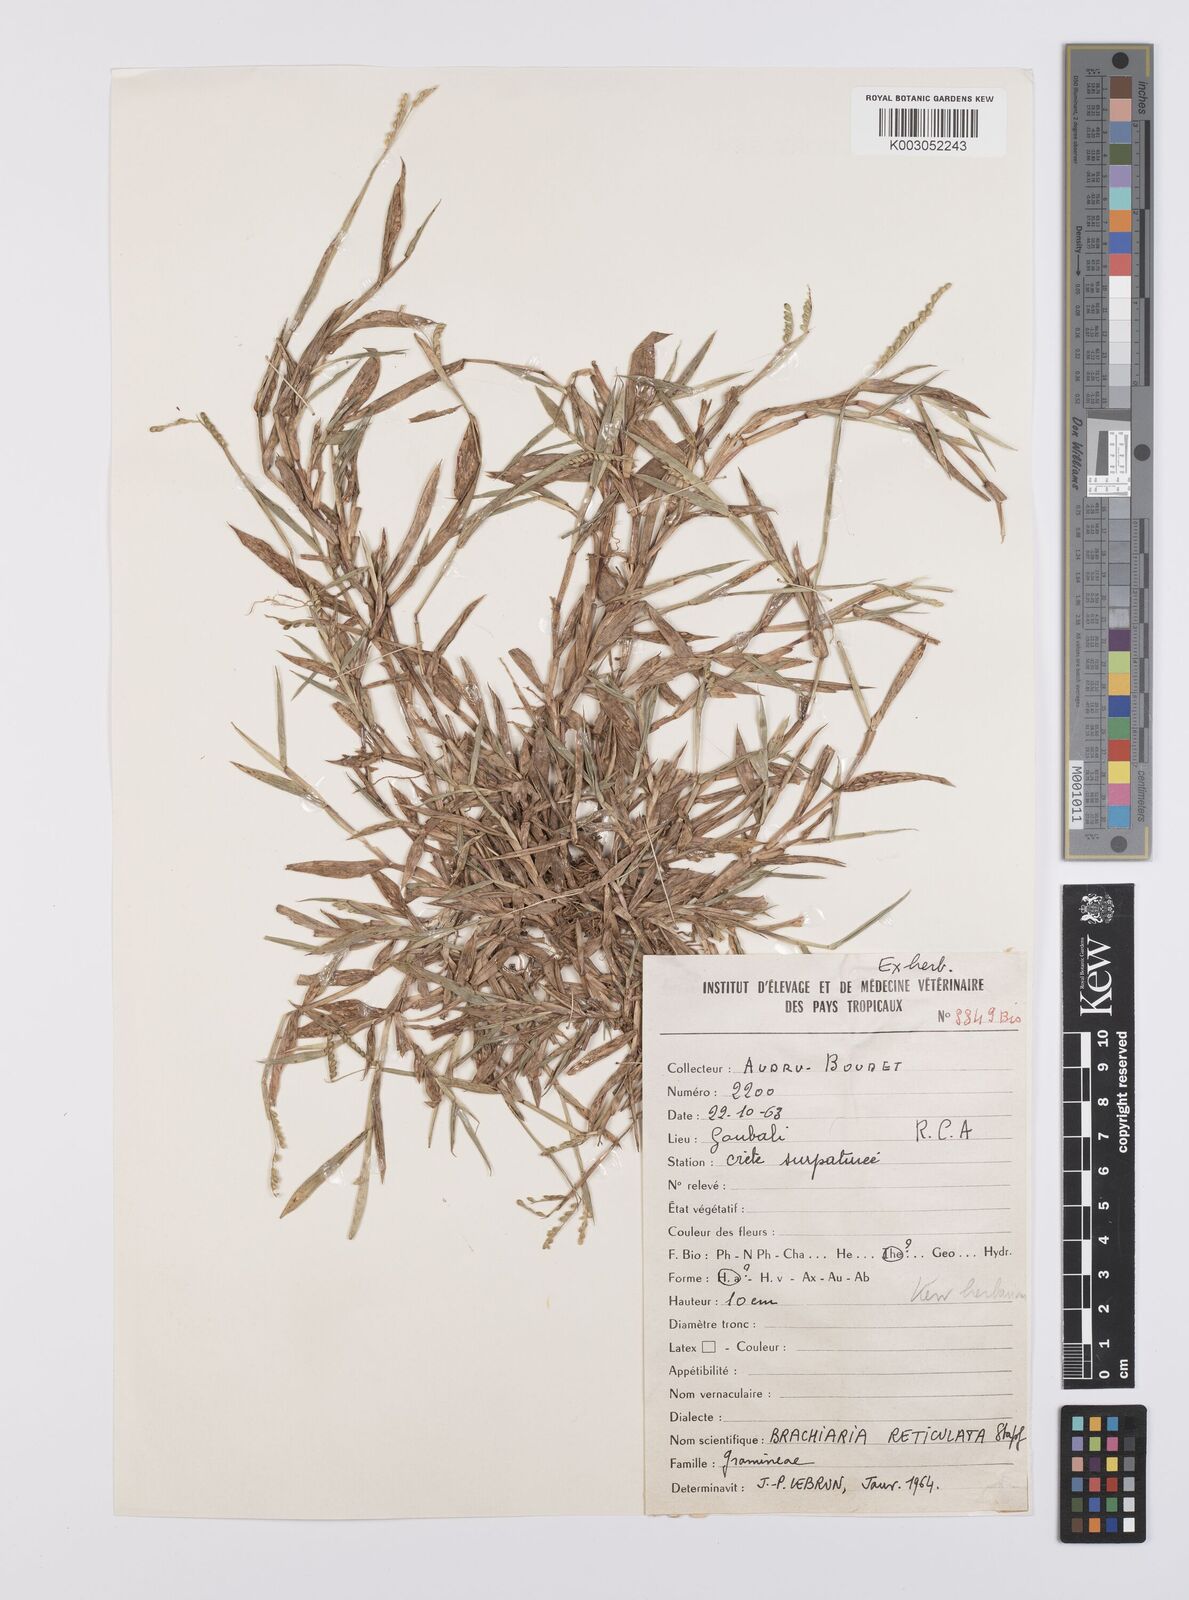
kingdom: Plantae
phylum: Tracheophyta
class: Liliopsida
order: Poales
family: Poaceae
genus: Urochloa
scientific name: Urochloa reticulata
